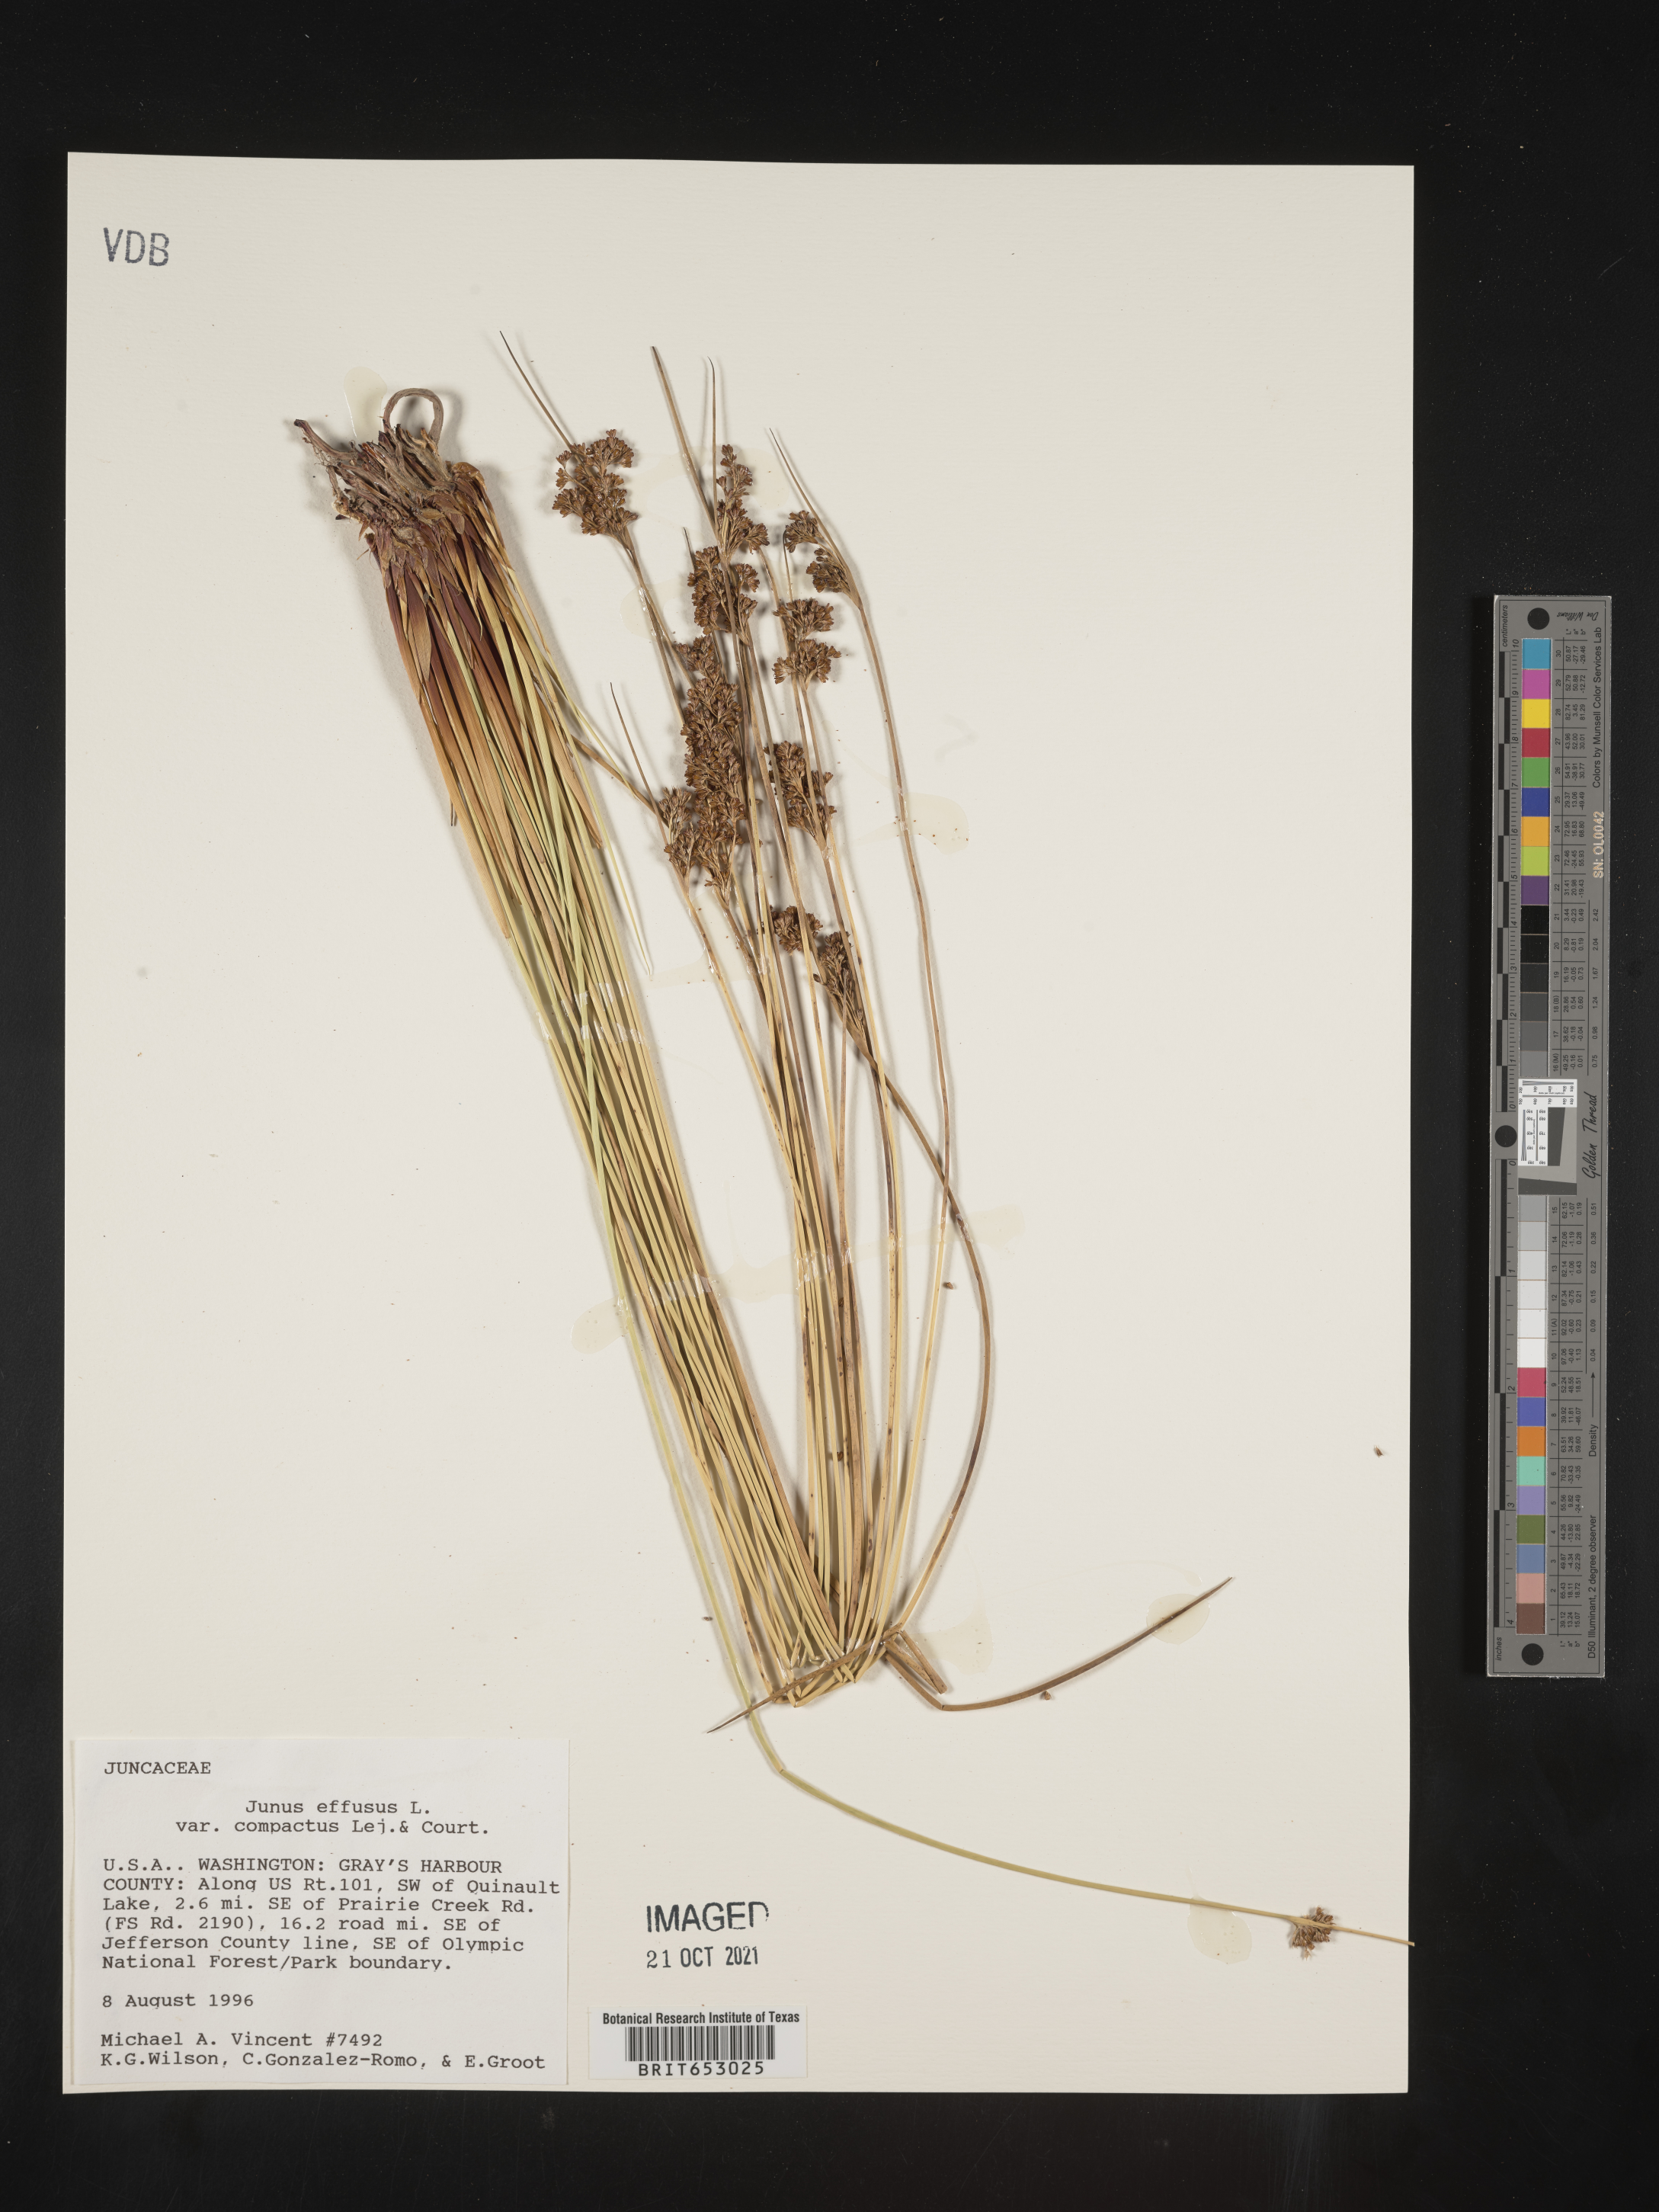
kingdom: Plantae
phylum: Tracheophyta
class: Liliopsida
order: Poales
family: Juncaceae
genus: Juncus
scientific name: Juncus effusus
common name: Soft rush
